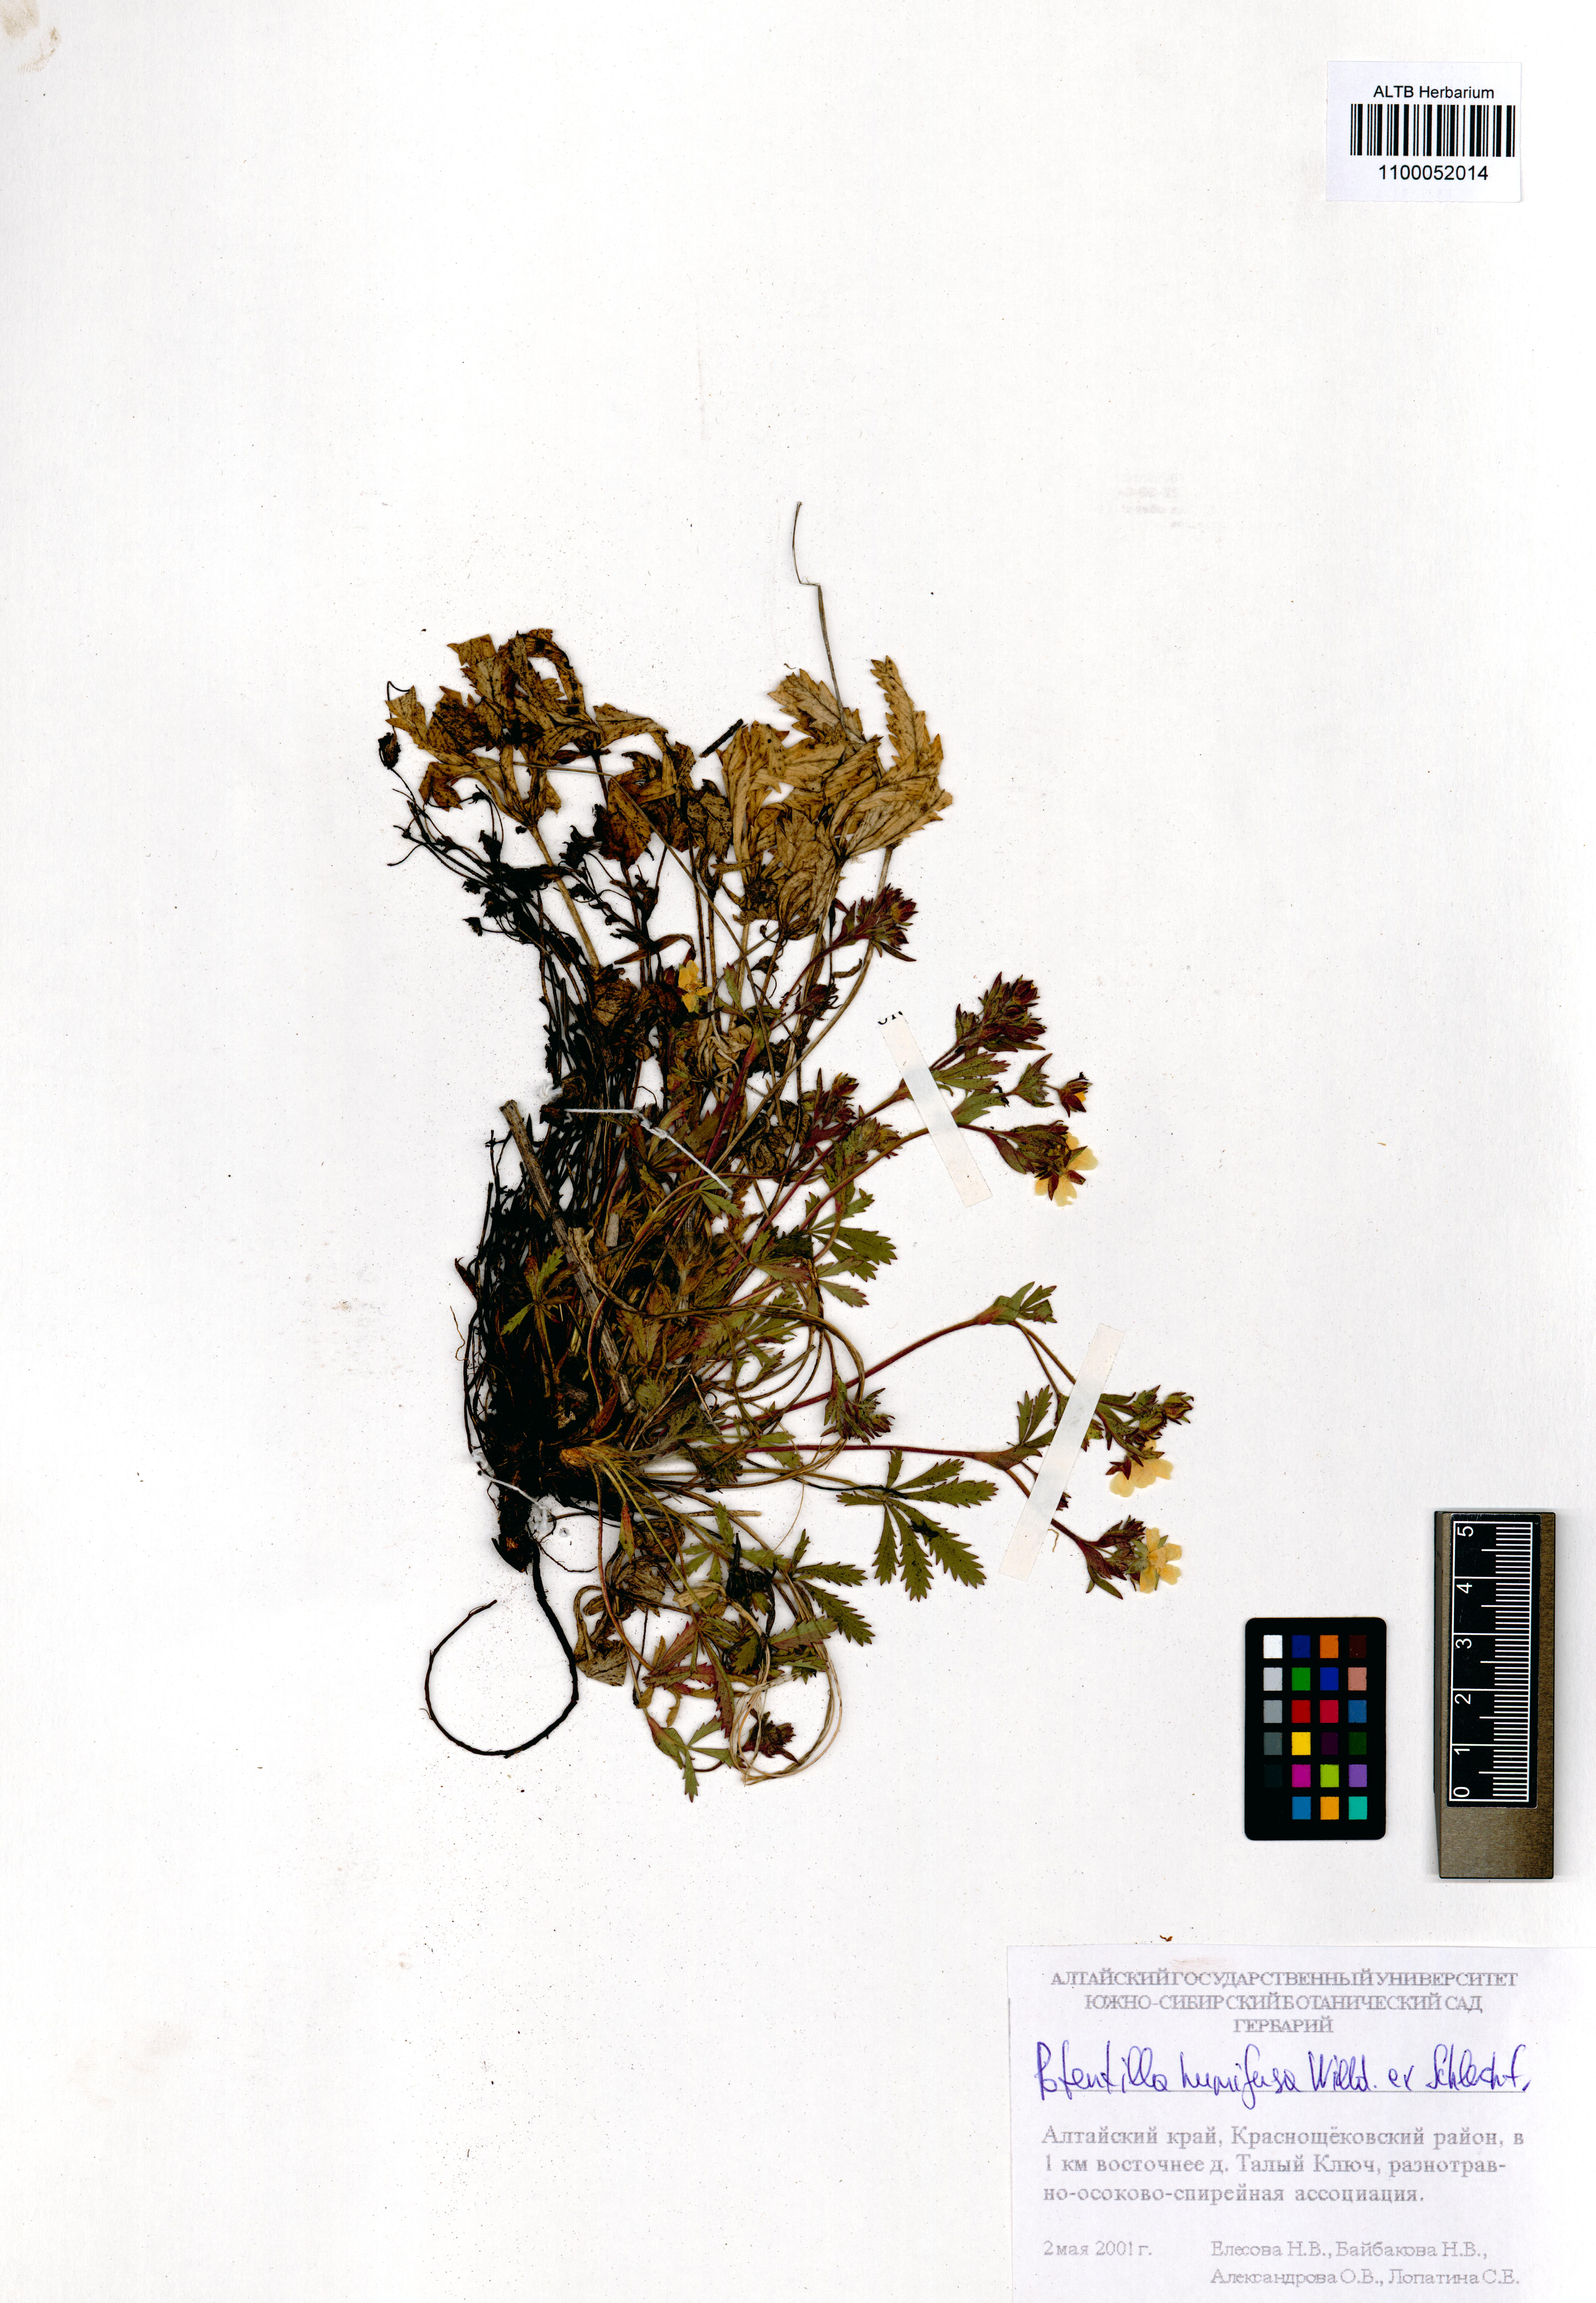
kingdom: Plantae
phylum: Tracheophyta
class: Magnoliopsida
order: Rosales
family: Rosaceae
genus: Potentilla
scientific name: Potentilla humifusa
